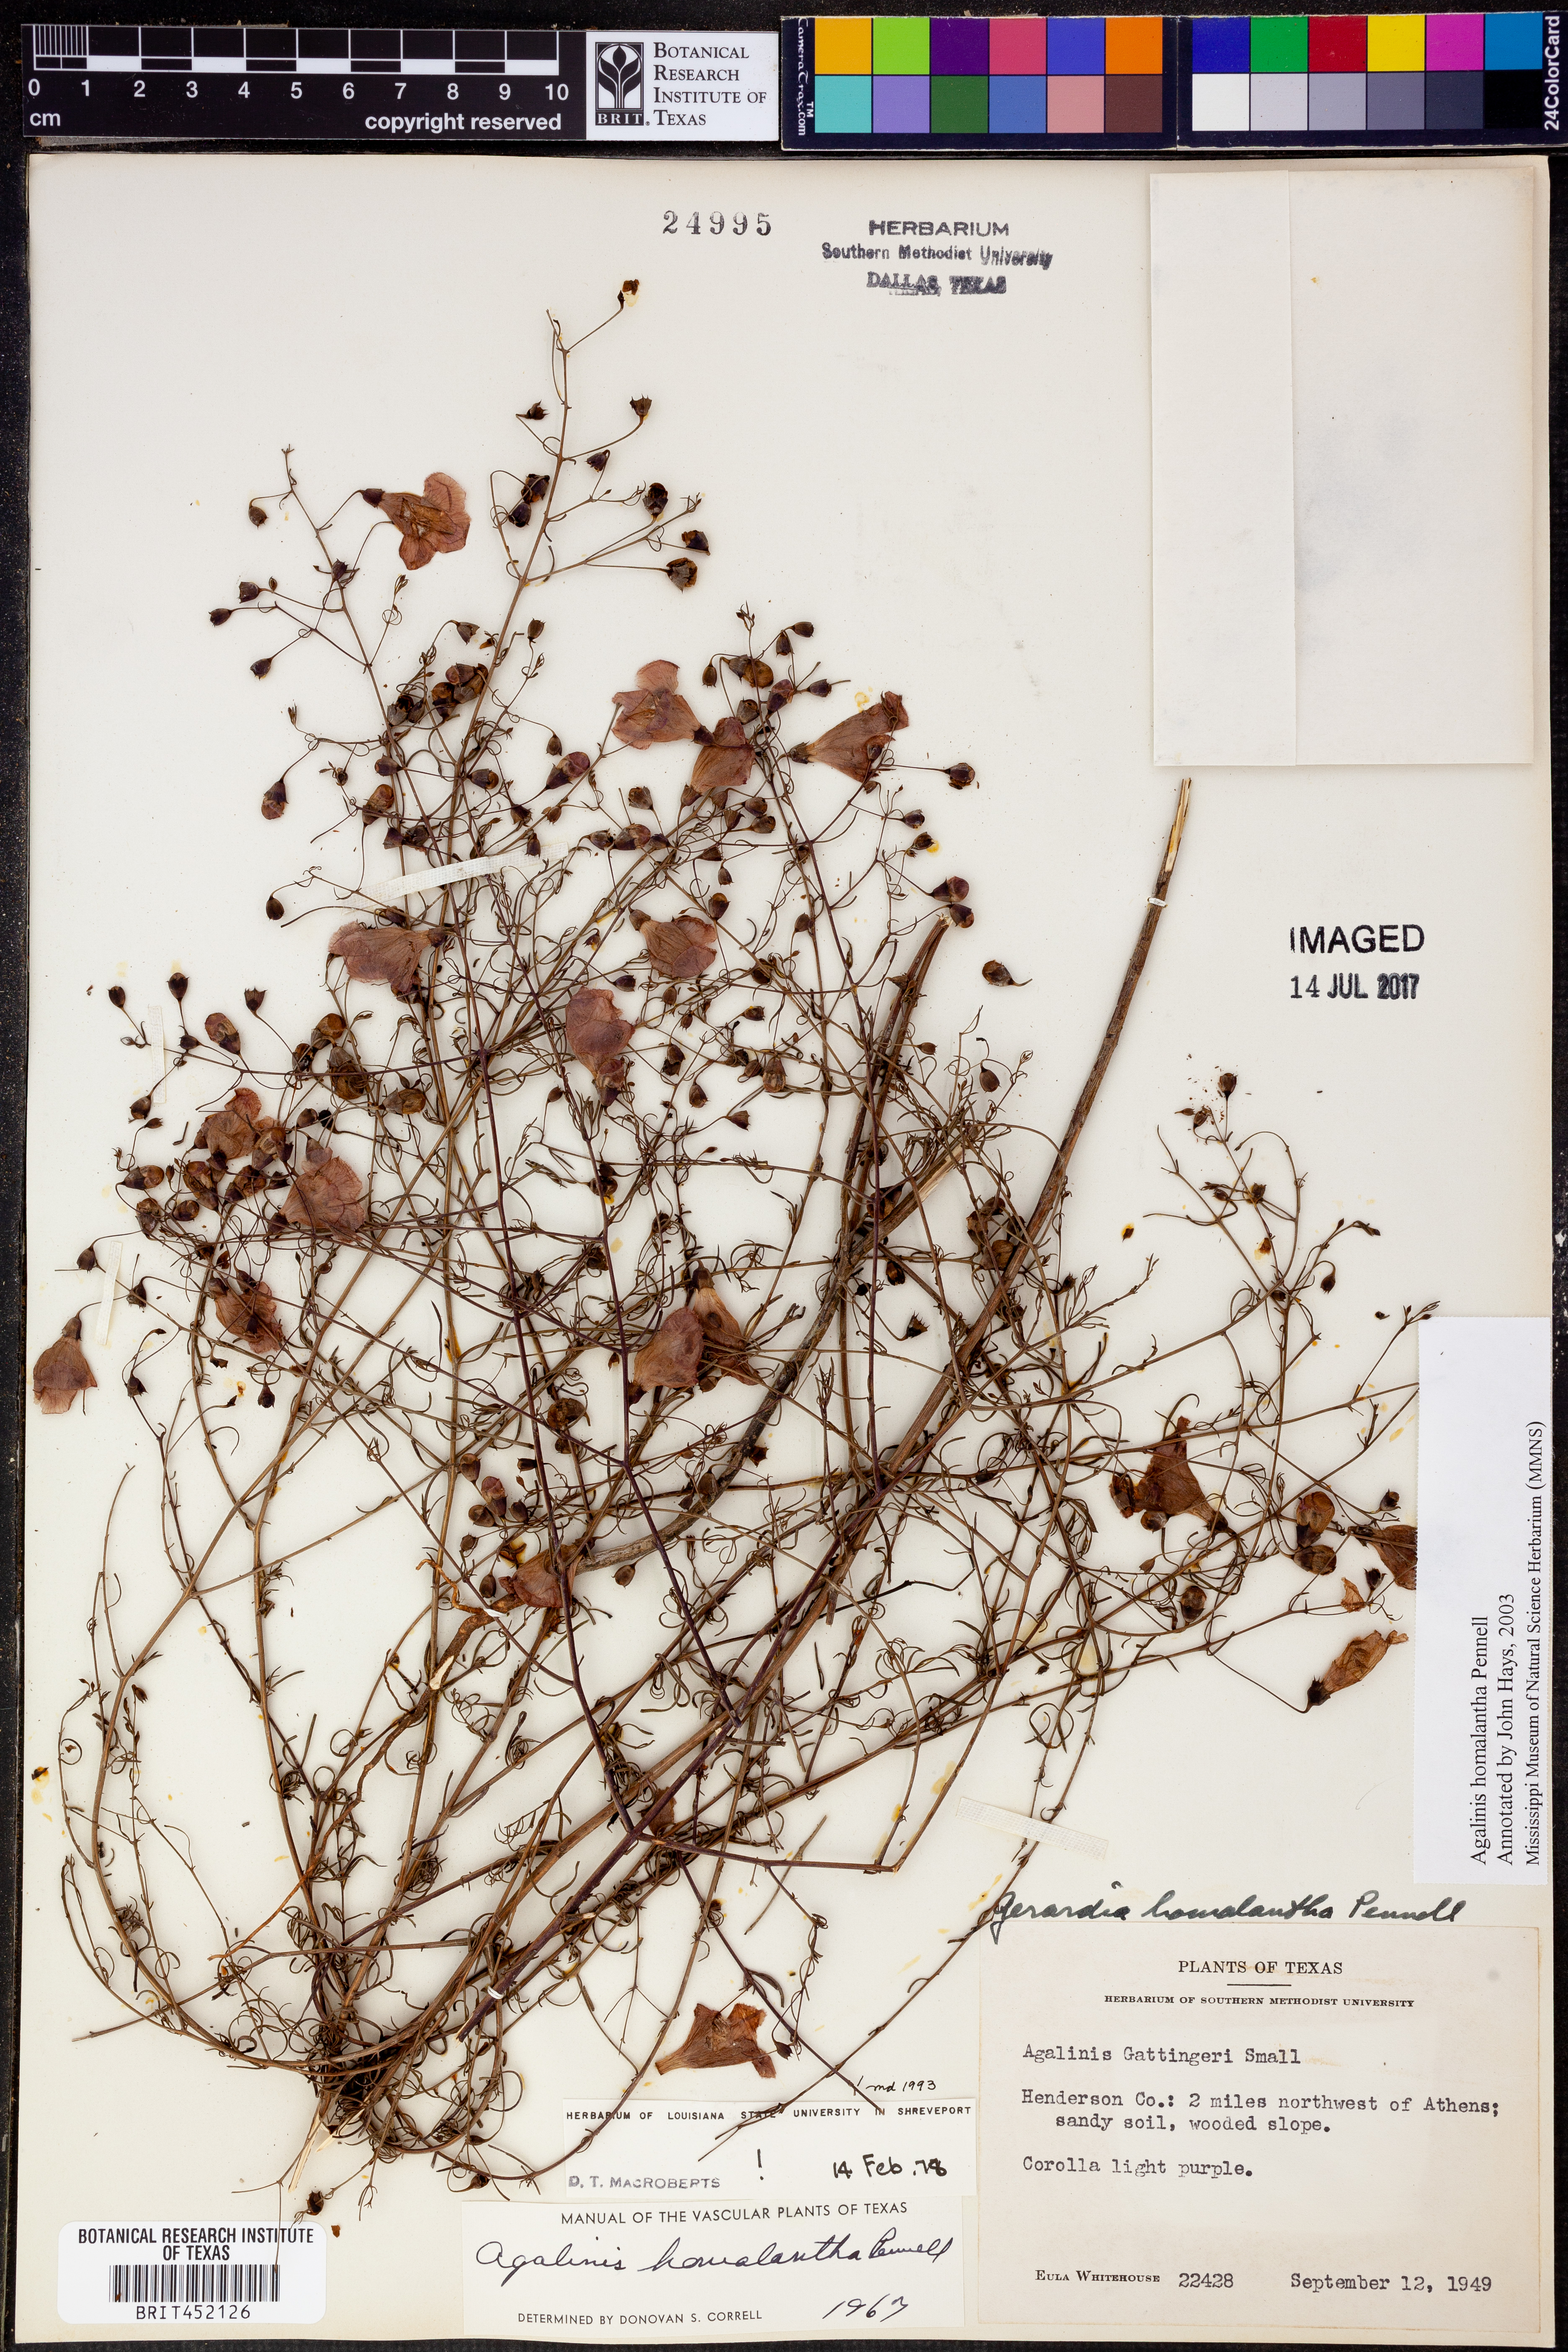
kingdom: Plantae
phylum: Tracheophyta
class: Magnoliopsida
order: Lamiales
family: Orobanchaceae
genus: Agalinis
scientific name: Agalinis homalantha
